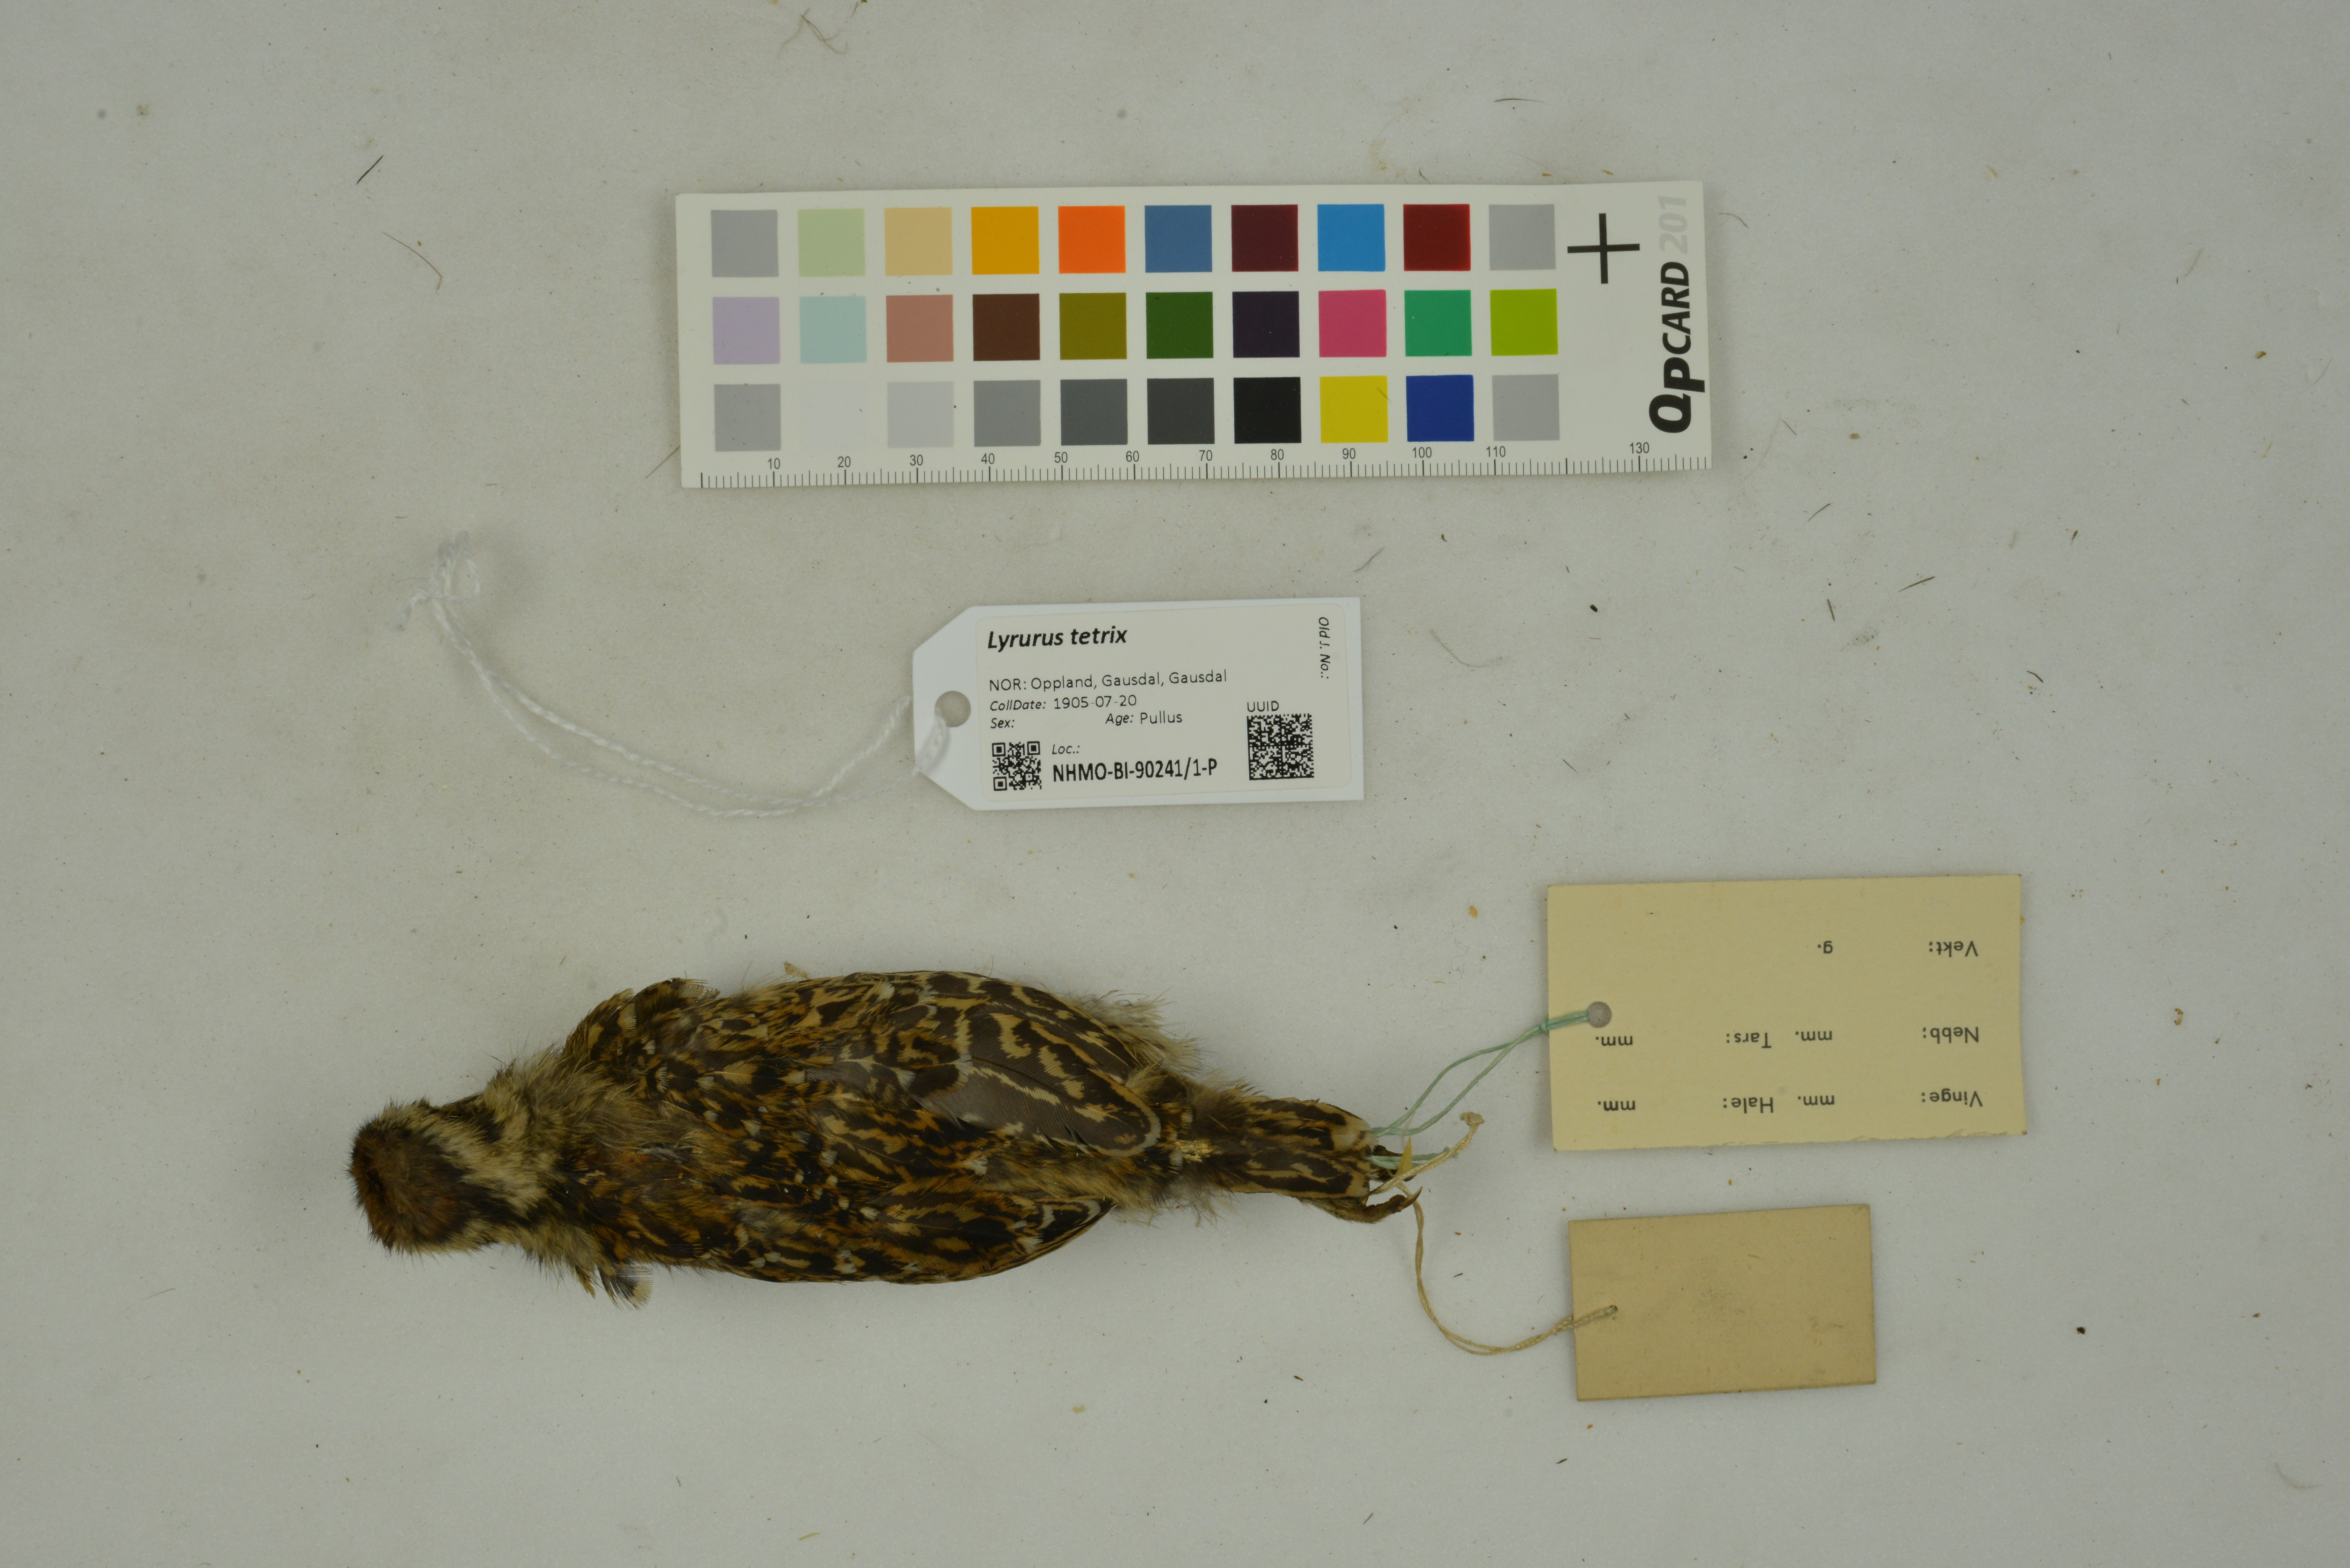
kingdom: Animalia
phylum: Chordata
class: Aves
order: Galliformes
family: Phasianidae
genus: Lyrurus
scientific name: Lyrurus tetrix
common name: Black grouse
